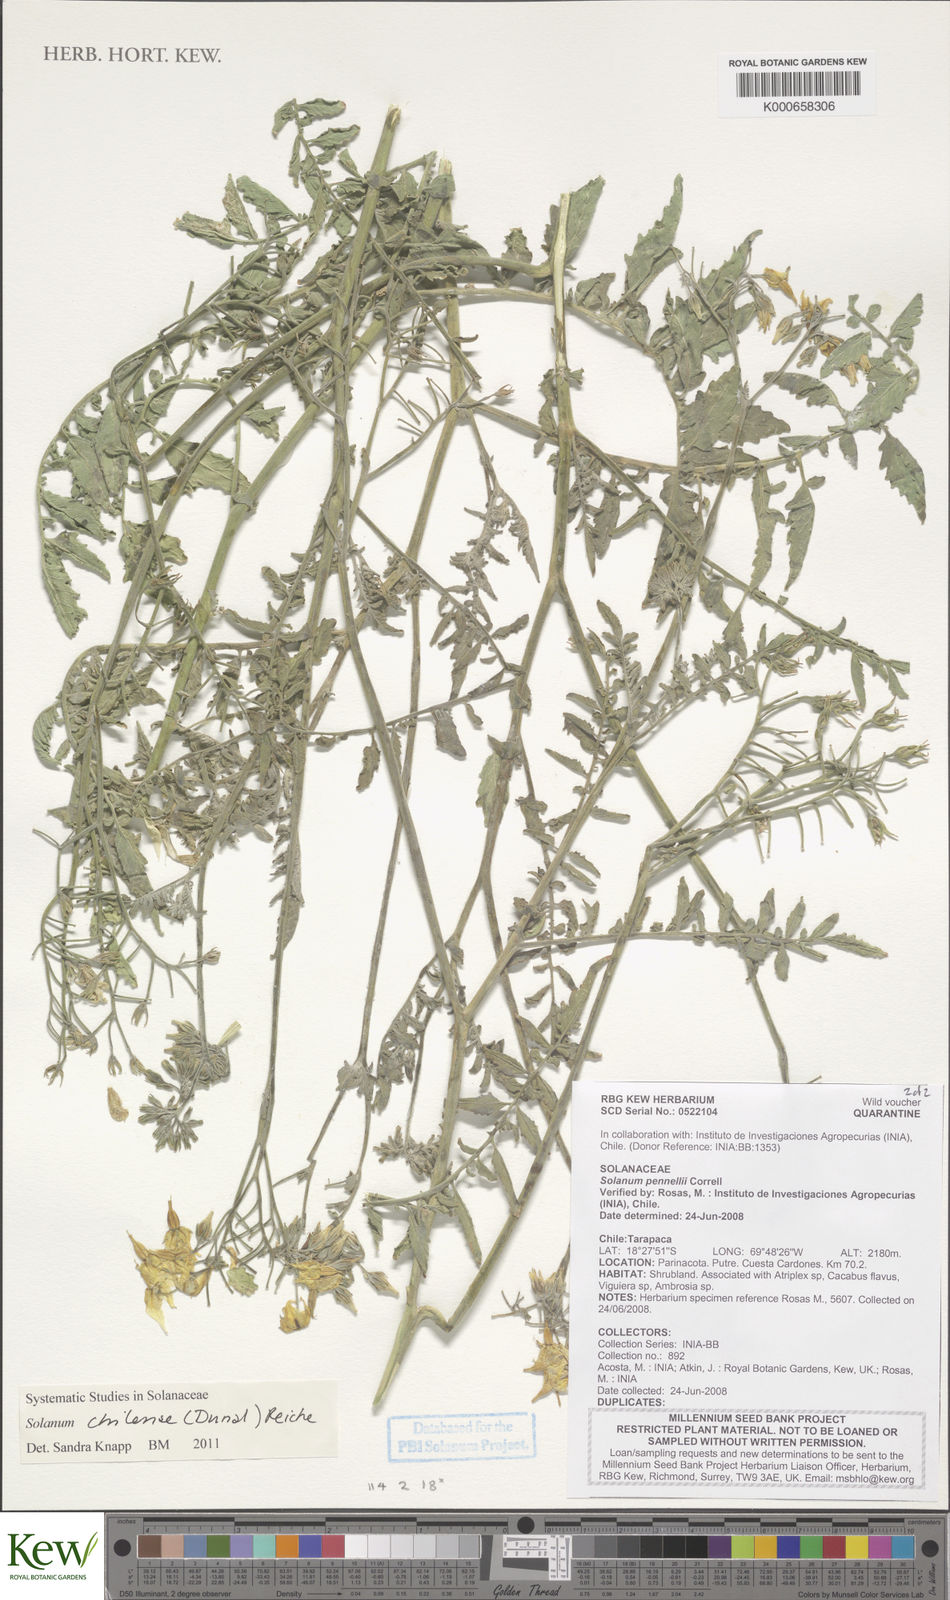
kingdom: Plantae
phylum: Tracheophyta
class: Magnoliopsida
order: Solanales
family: Solanaceae
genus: Solanum
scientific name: Solanum chilense
